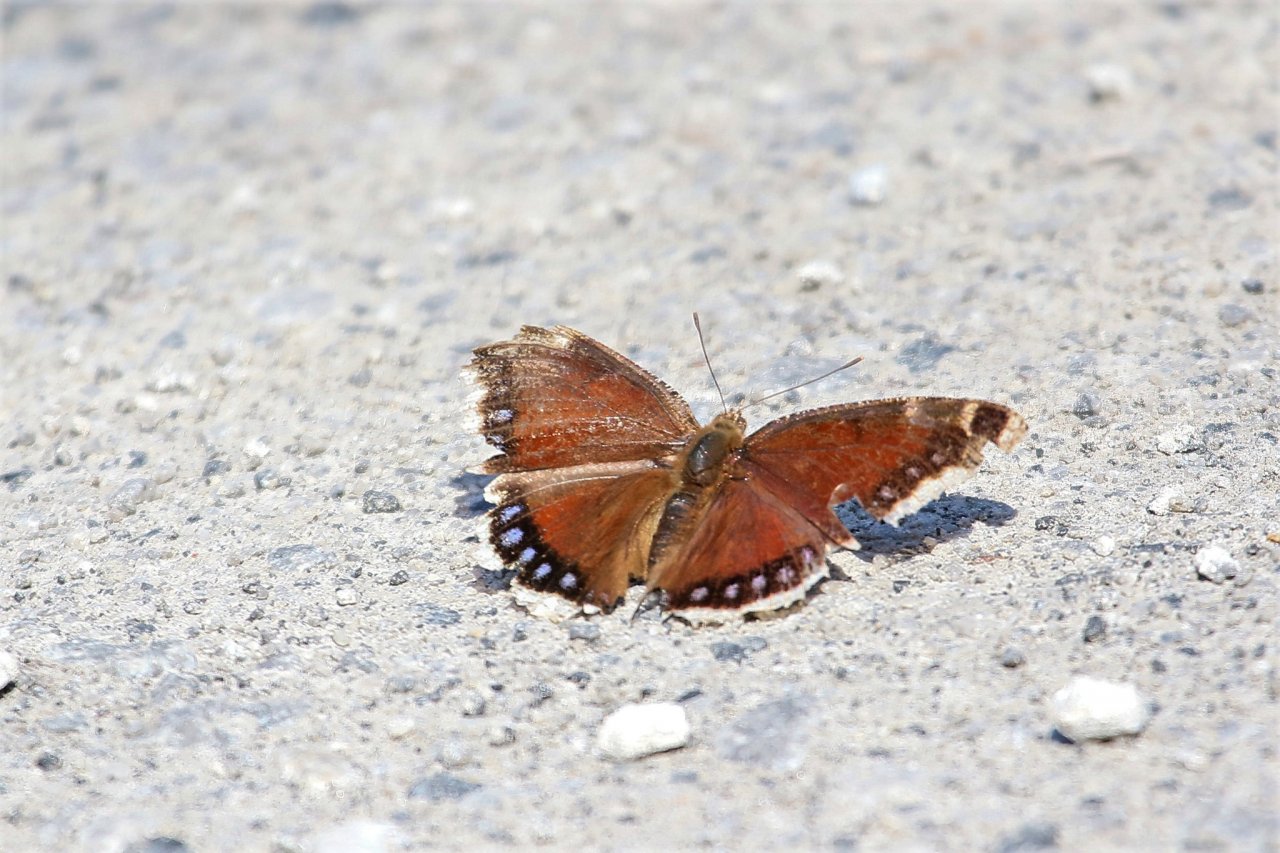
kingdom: Animalia
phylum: Arthropoda
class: Insecta
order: Lepidoptera
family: Nymphalidae
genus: Nymphalis
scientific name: Nymphalis antiopa
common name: Mourning Cloak
